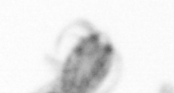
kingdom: Animalia
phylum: Arthropoda
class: Copepoda
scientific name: Copepoda
